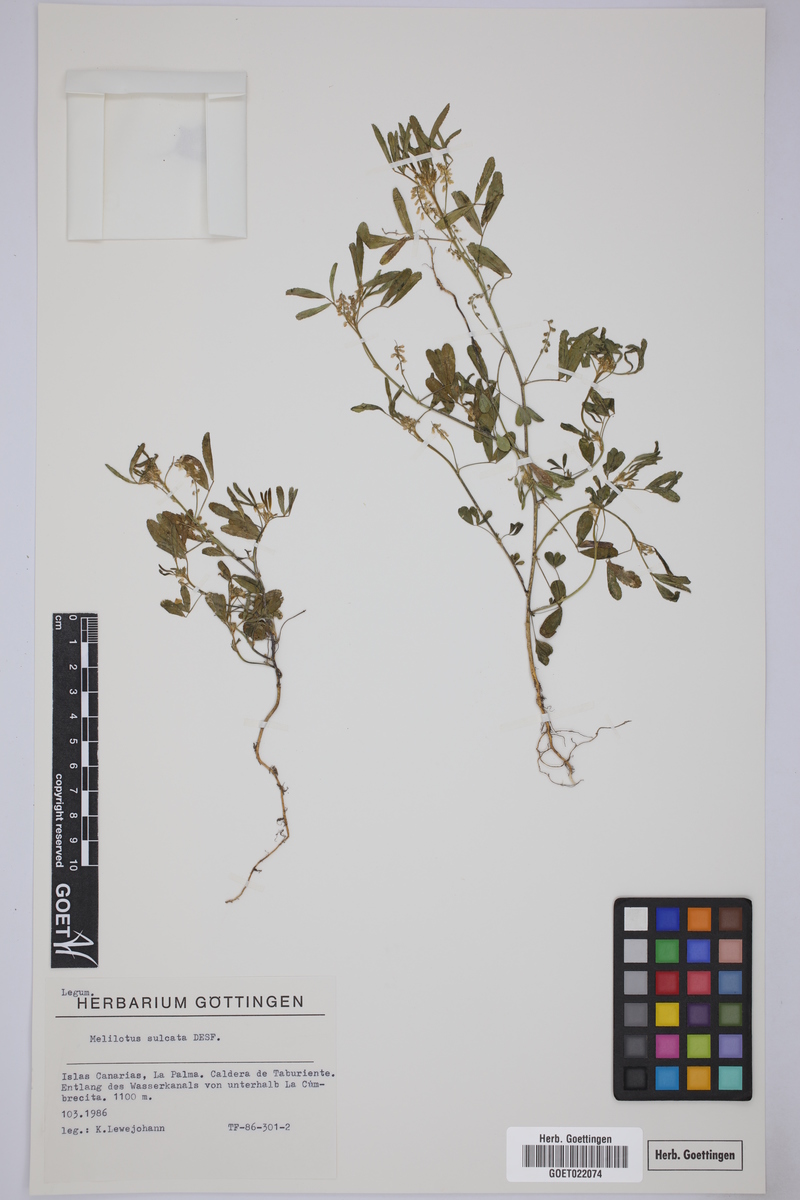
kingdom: Plantae
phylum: Tracheophyta
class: Magnoliopsida
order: Fabales
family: Fabaceae
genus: Melilotus
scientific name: Melilotus sulcatus
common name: Furrowed melilot
